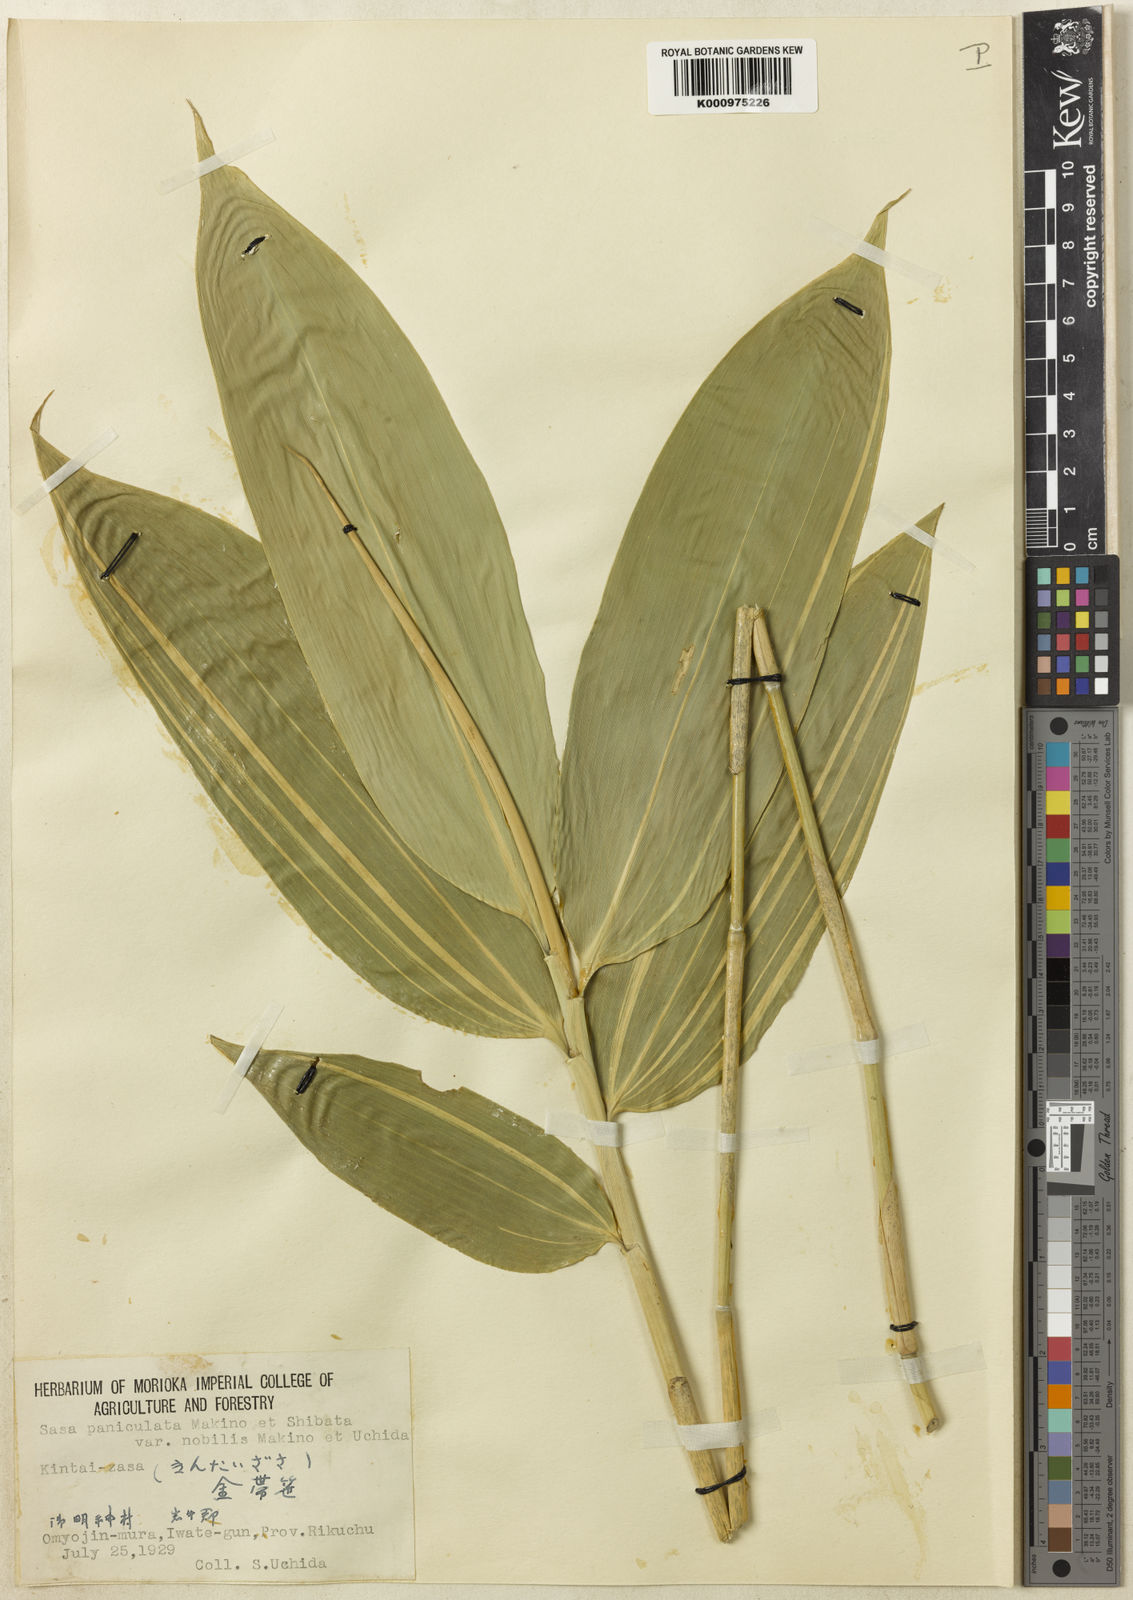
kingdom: Plantae
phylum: Tracheophyta
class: Liliopsida
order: Poales
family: Poaceae
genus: Sasa
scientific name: Sasa senanensis
